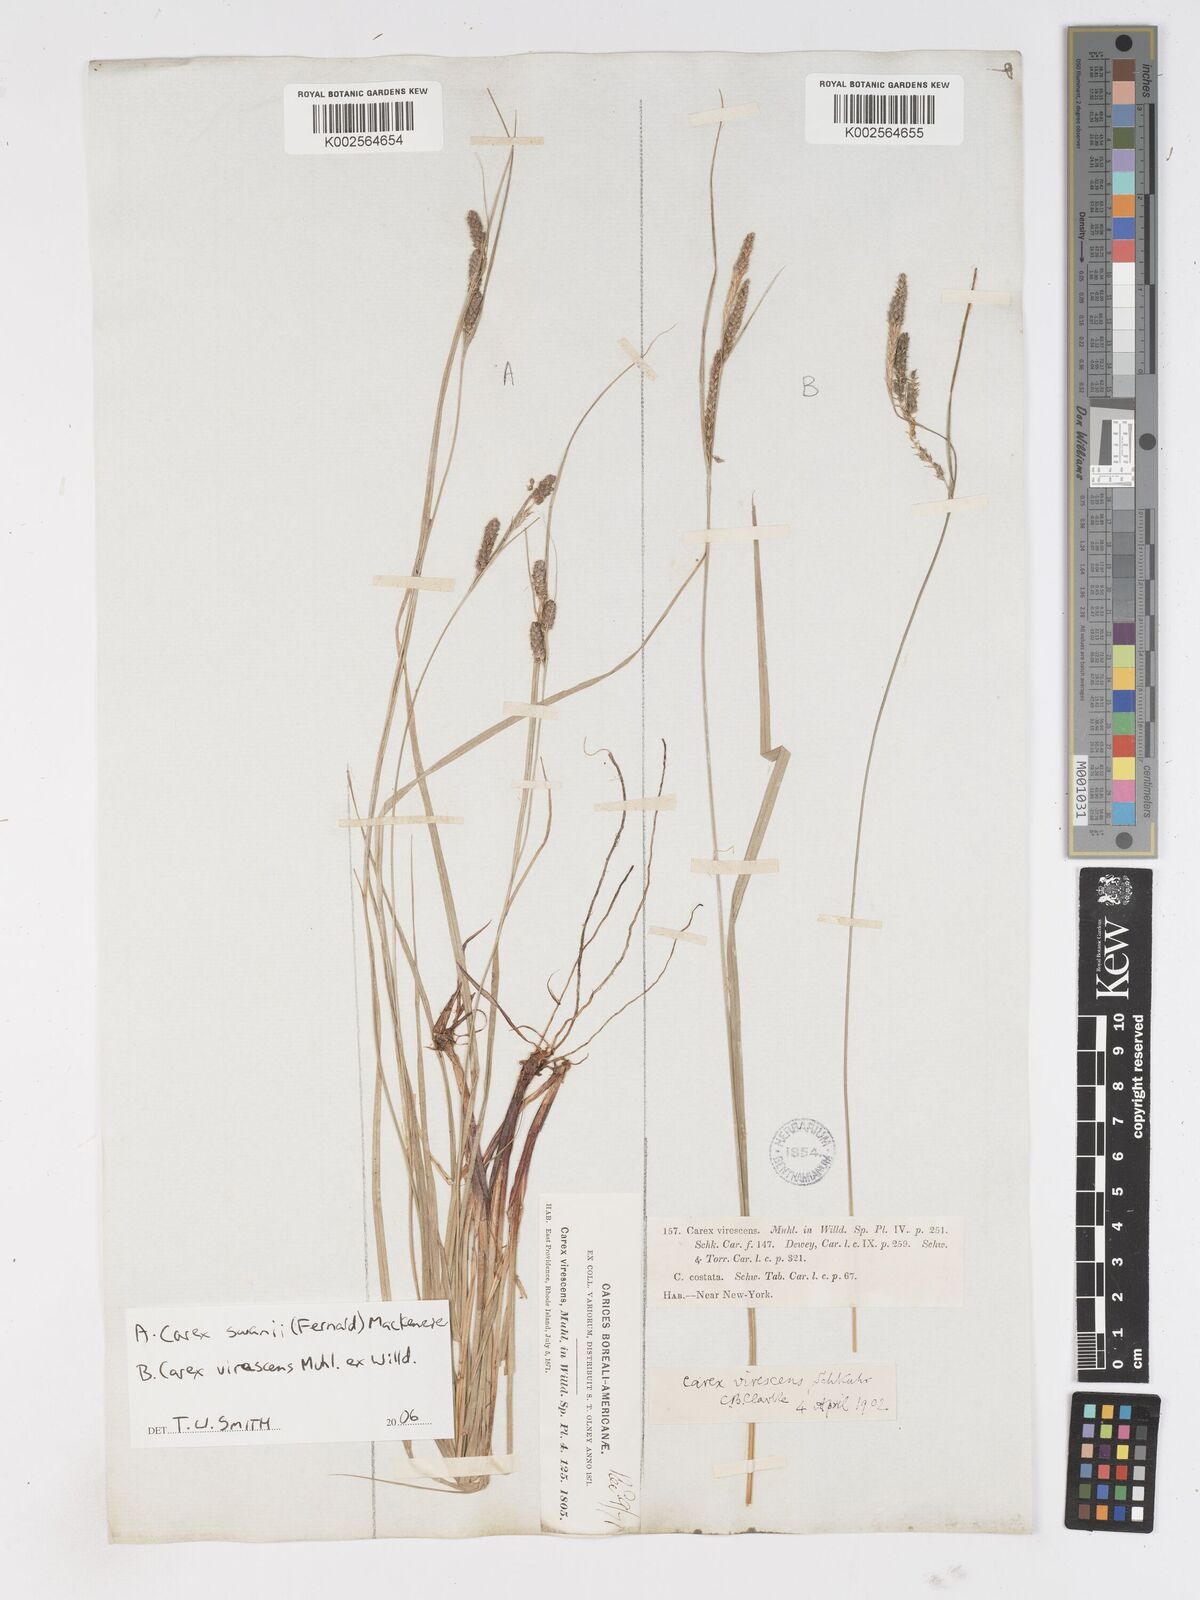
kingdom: Plantae
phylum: Tracheophyta
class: Liliopsida
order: Poales
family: Cyperaceae
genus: Carex
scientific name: Carex
